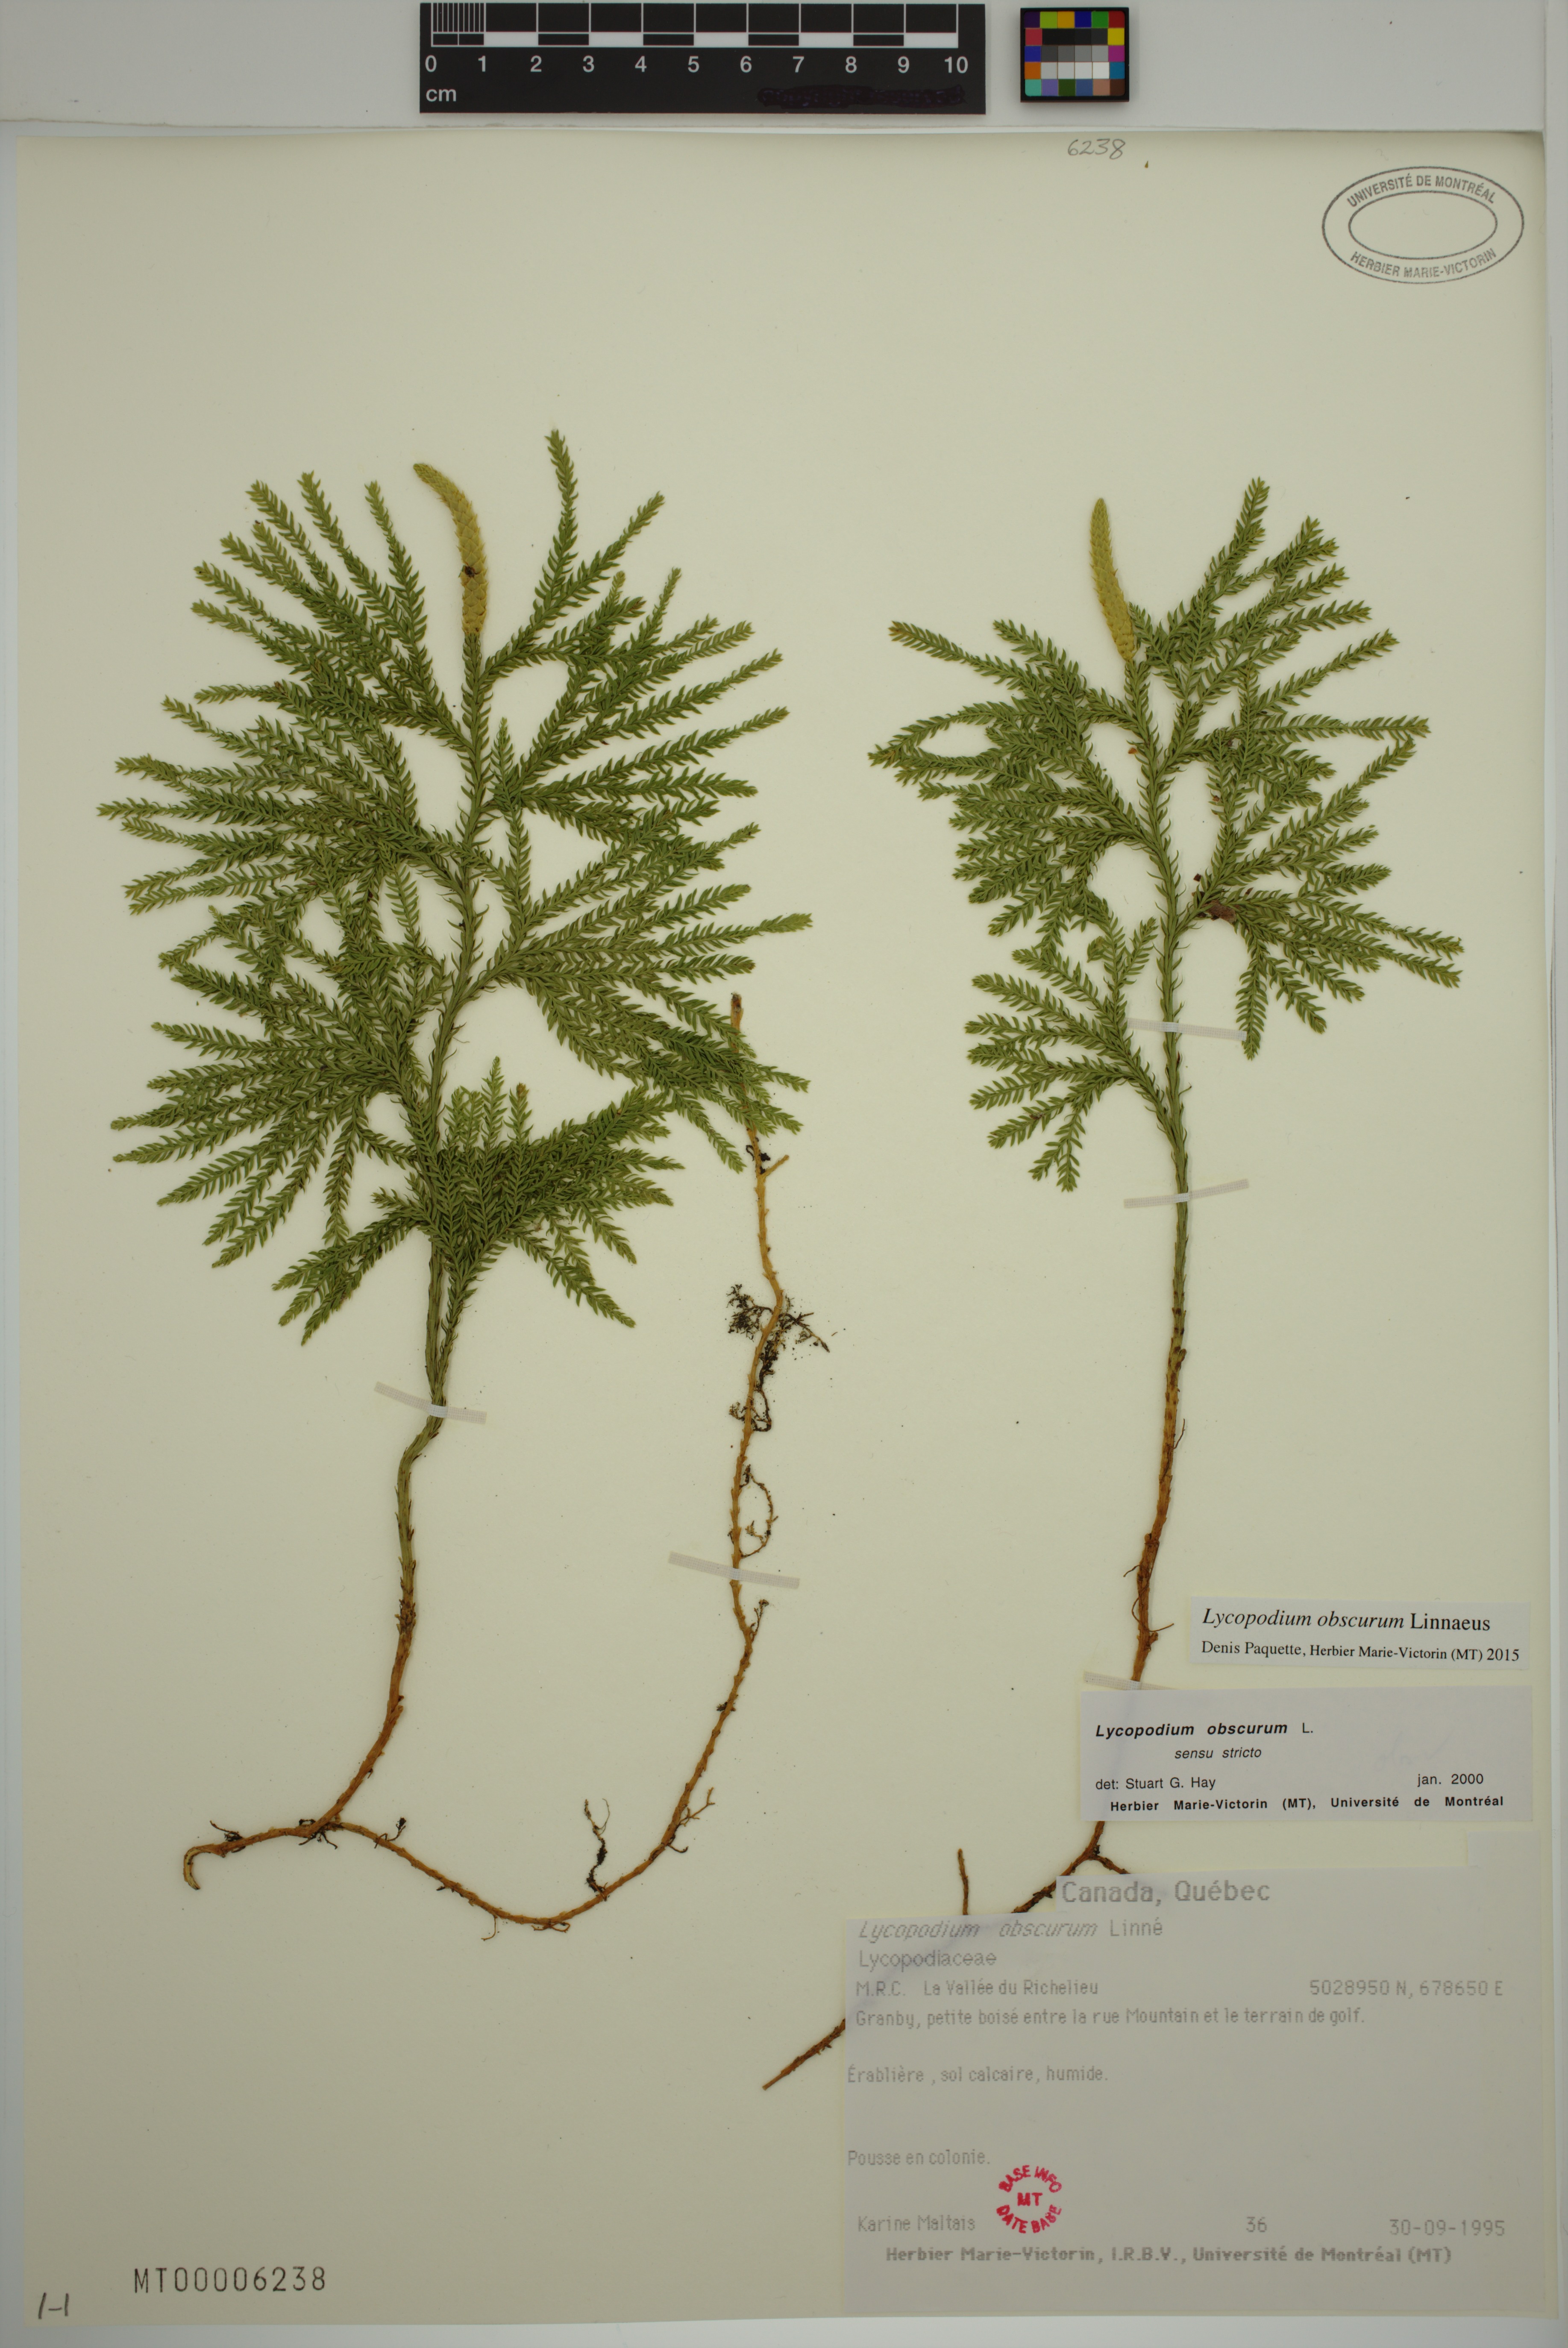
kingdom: Plantae
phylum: Tracheophyta
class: Lycopodiopsida
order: Lycopodiales
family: Lycopodiaceae
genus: Dendrolycopodium
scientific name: Dendrolycopodium obscurum
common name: Common ground-pine
